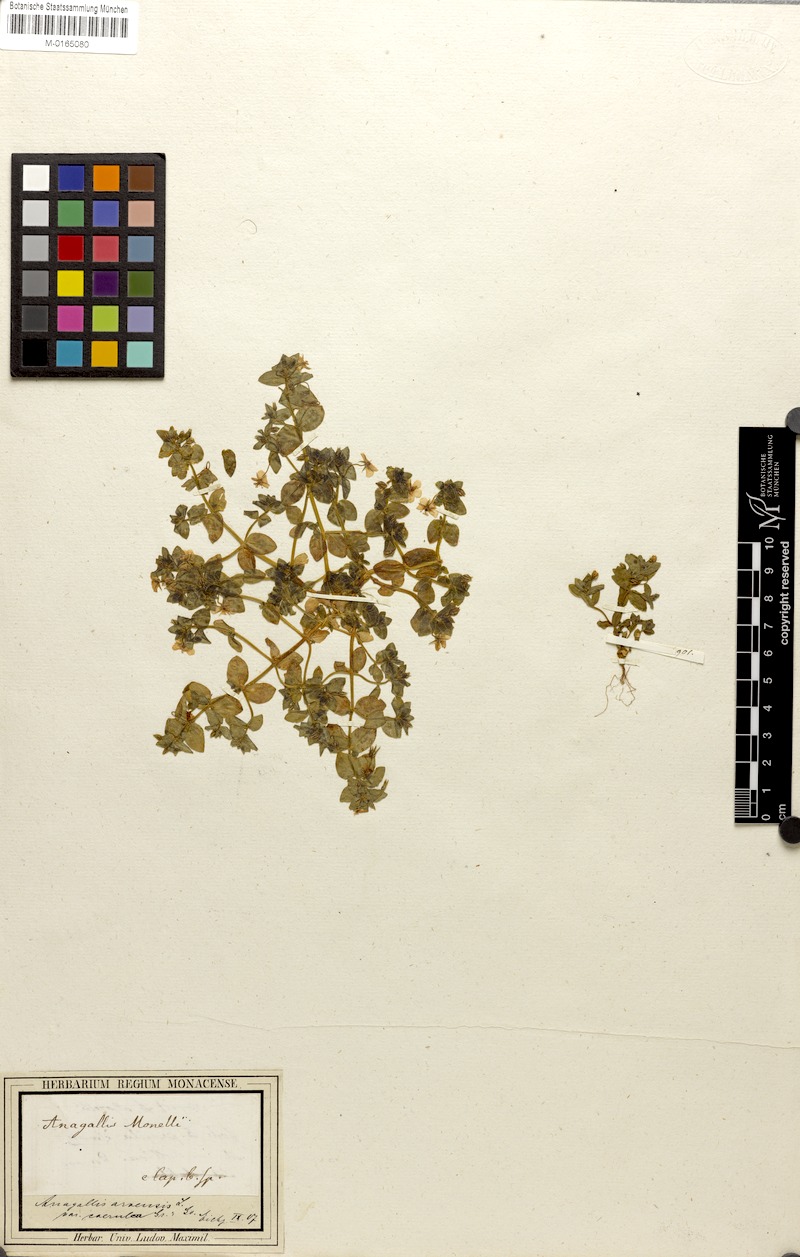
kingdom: Plantae
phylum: Tracheophyta
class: Magnoliopsida
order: Ericales
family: Primulaceae
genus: Lysimachia
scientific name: Lysimachia arvensis
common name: Scarlet pimpernel
